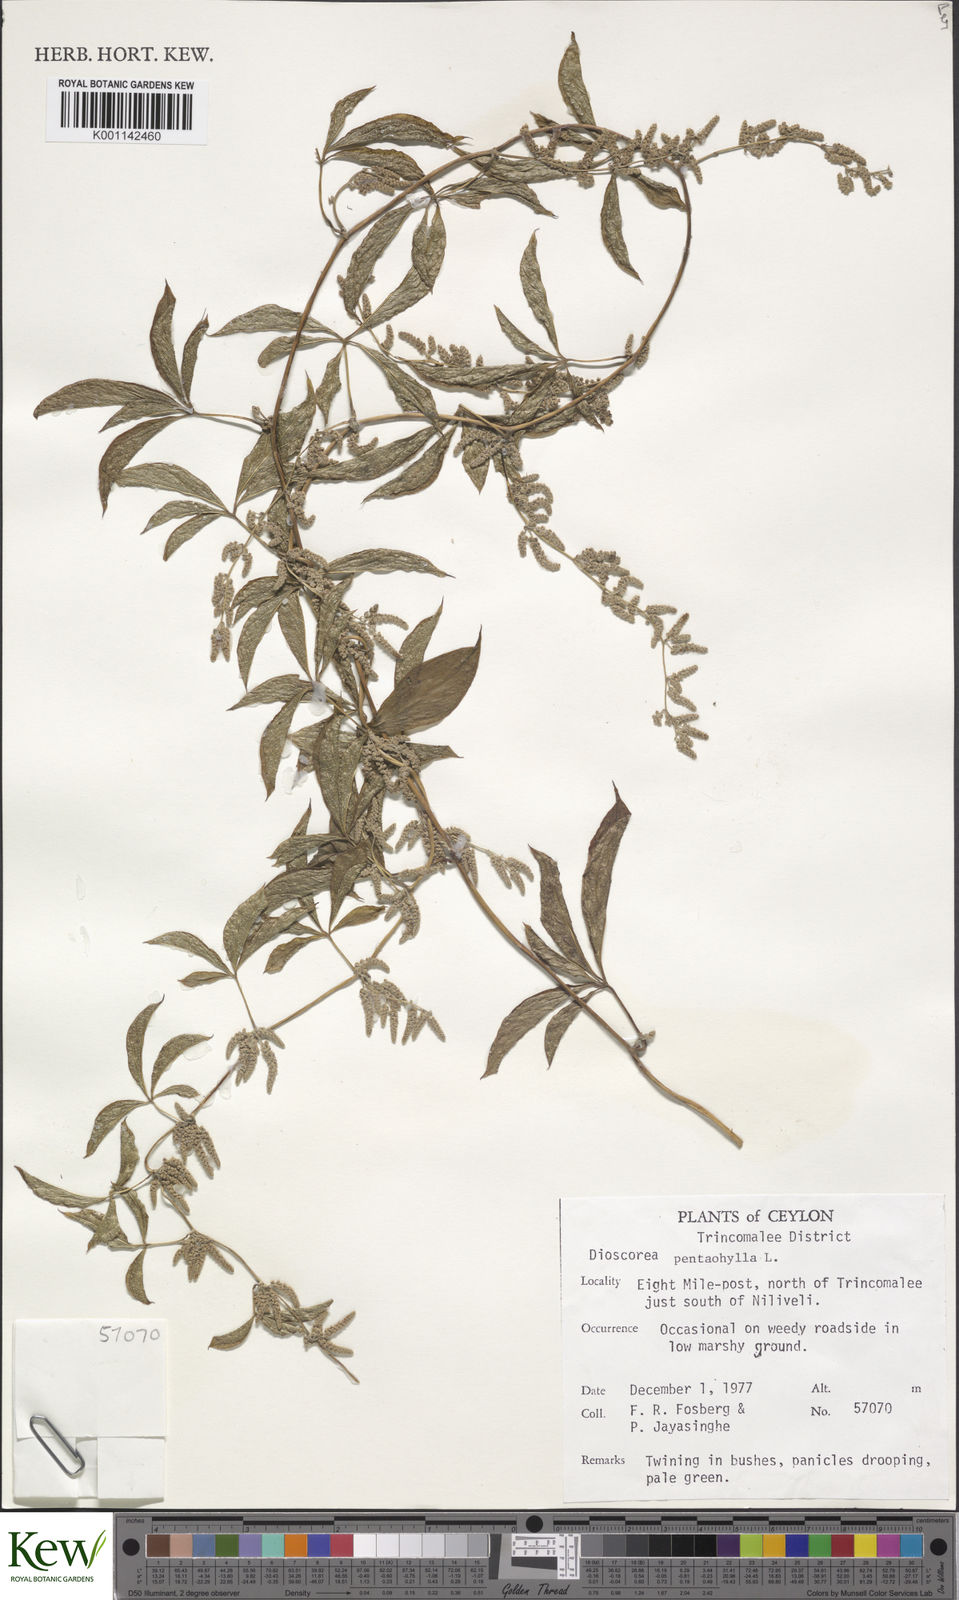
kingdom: Plantae
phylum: Tracheophyta
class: Liliopsida
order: Dioscoreales
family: Dioscoreaceae
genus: Dioscorea
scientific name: Dioscorea pentaphylla
